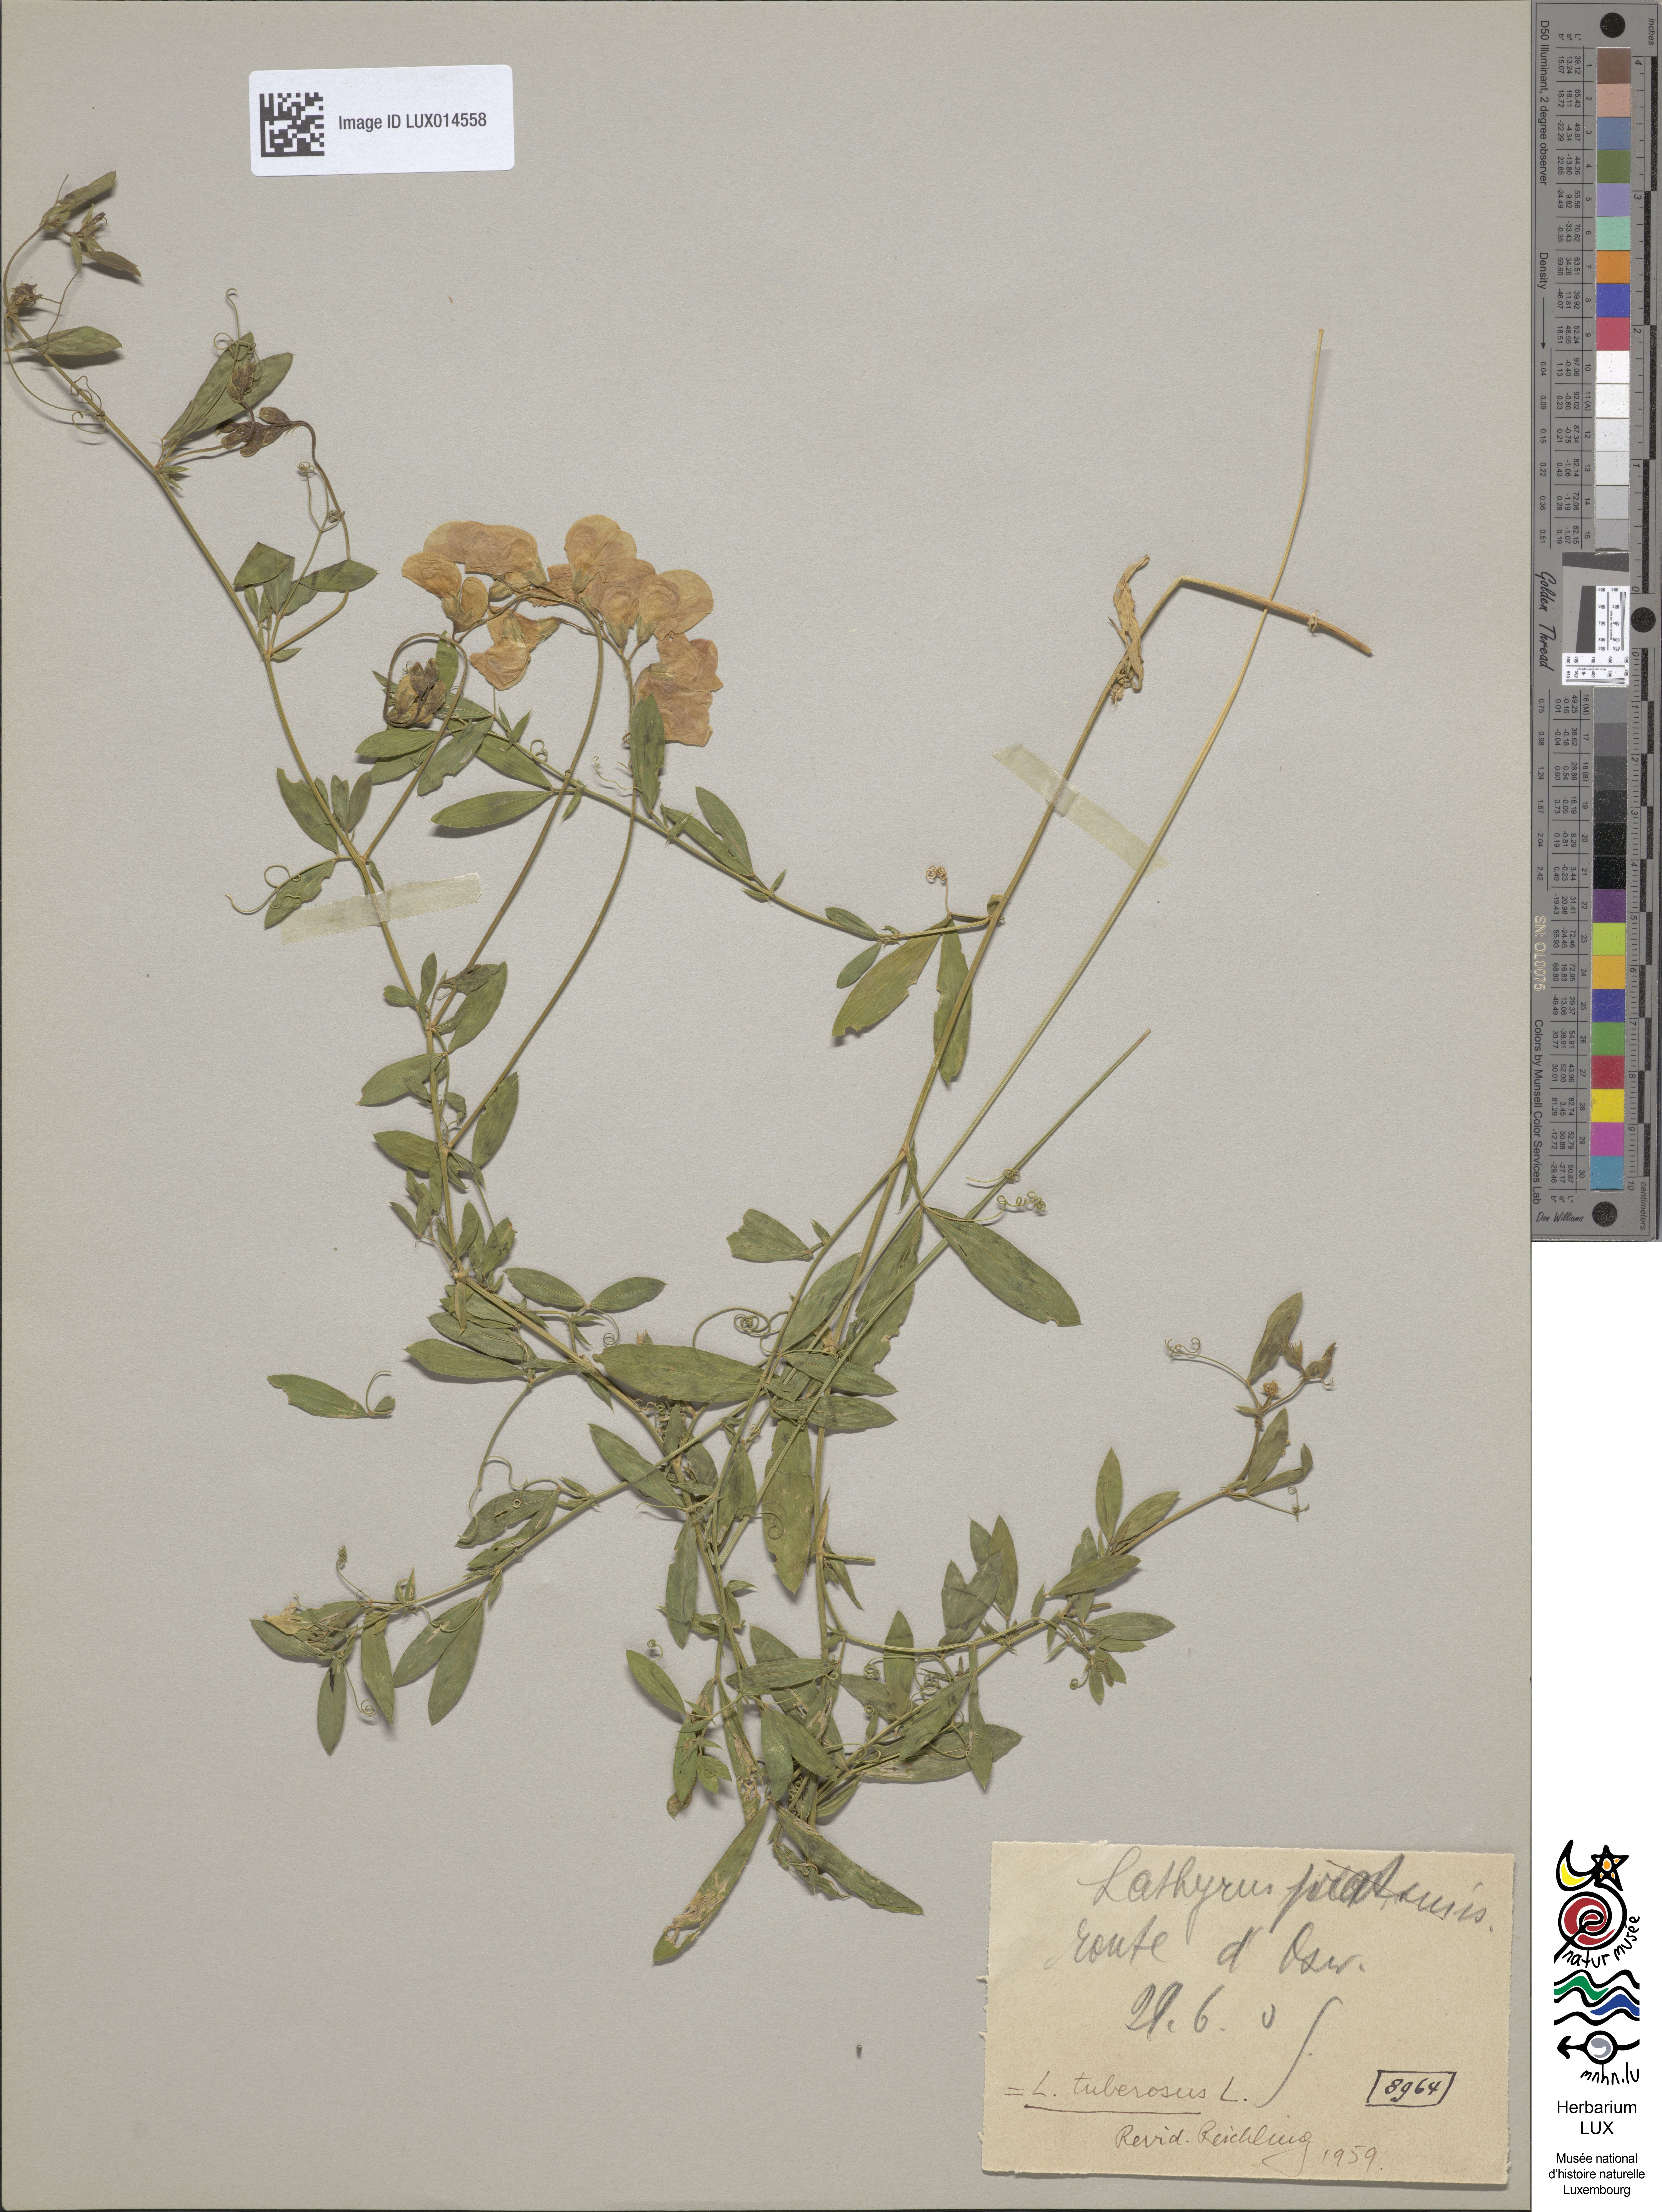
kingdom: Plantae
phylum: Tracheophyta
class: Magnoliopsida
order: Fabales
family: Fabaceae
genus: Lathyrus
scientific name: Lathyrus tuberosus
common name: Tuberous pea
